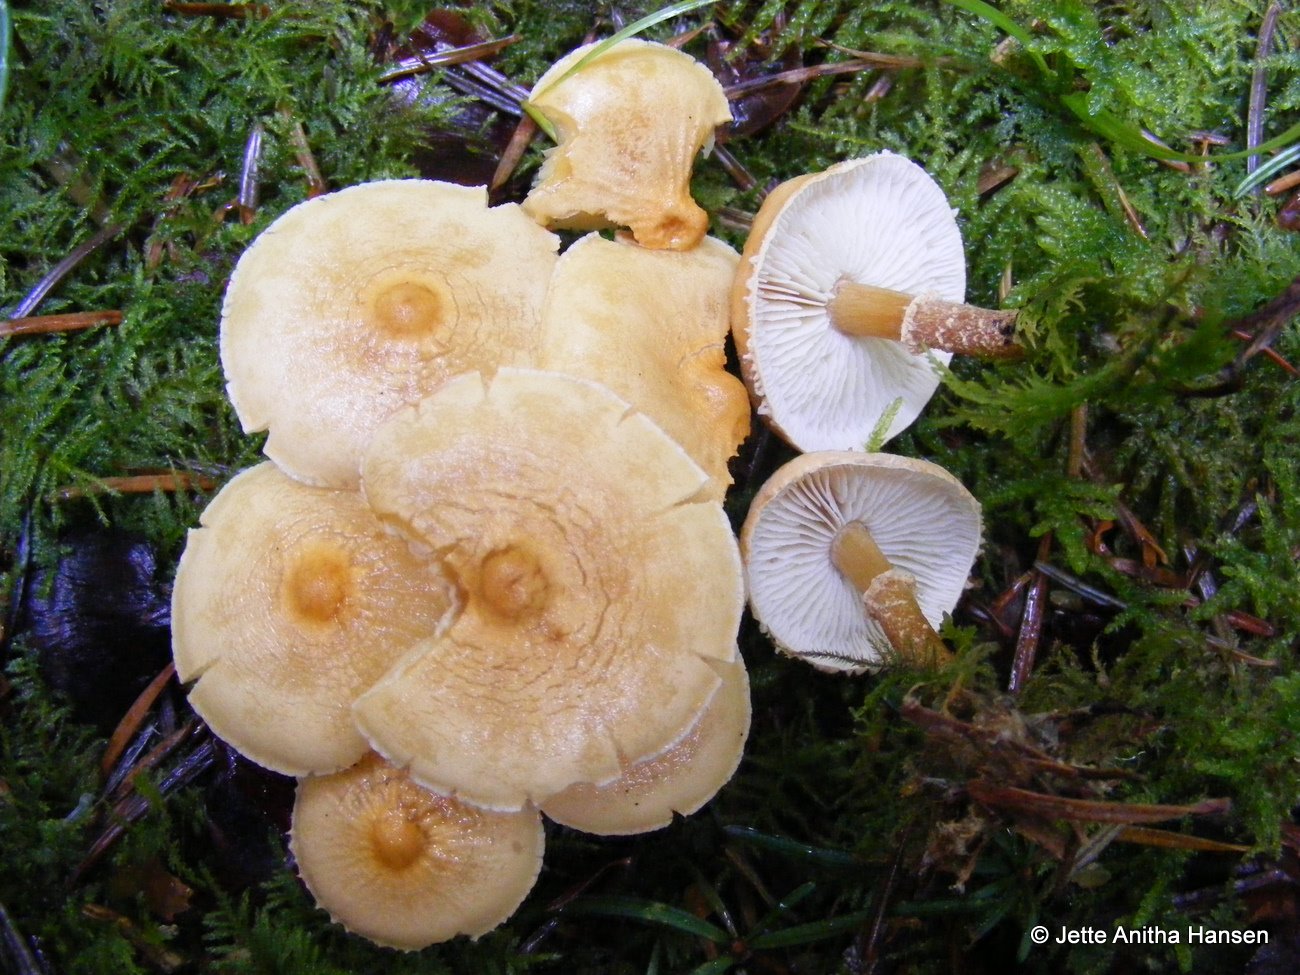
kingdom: Fungi
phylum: Basidiomycota
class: Agaricomycetes
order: Agaricales
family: Tricholomataceae
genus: Cystoderma
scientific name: Cystoderma amianthinum
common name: okkergul grynhat
